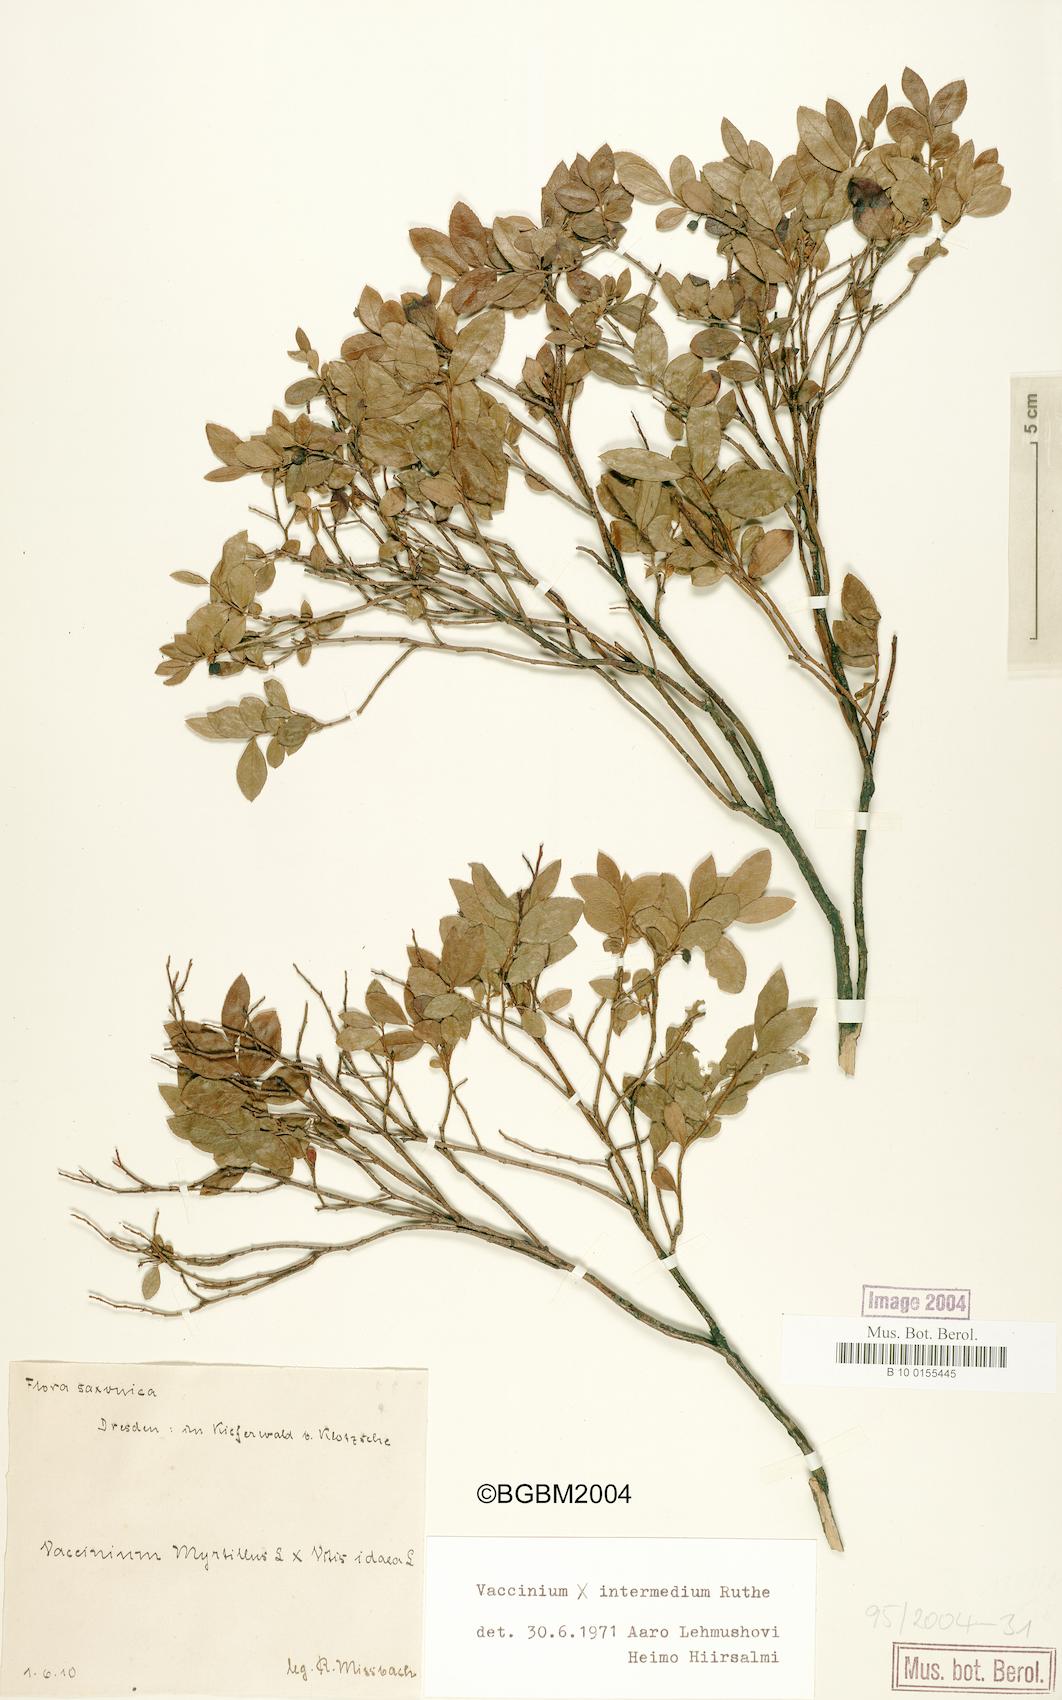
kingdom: Plantae
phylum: Tracheophyta
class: Magnoliopsida
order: Ericales
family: Ericaceae
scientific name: Ericaceae
